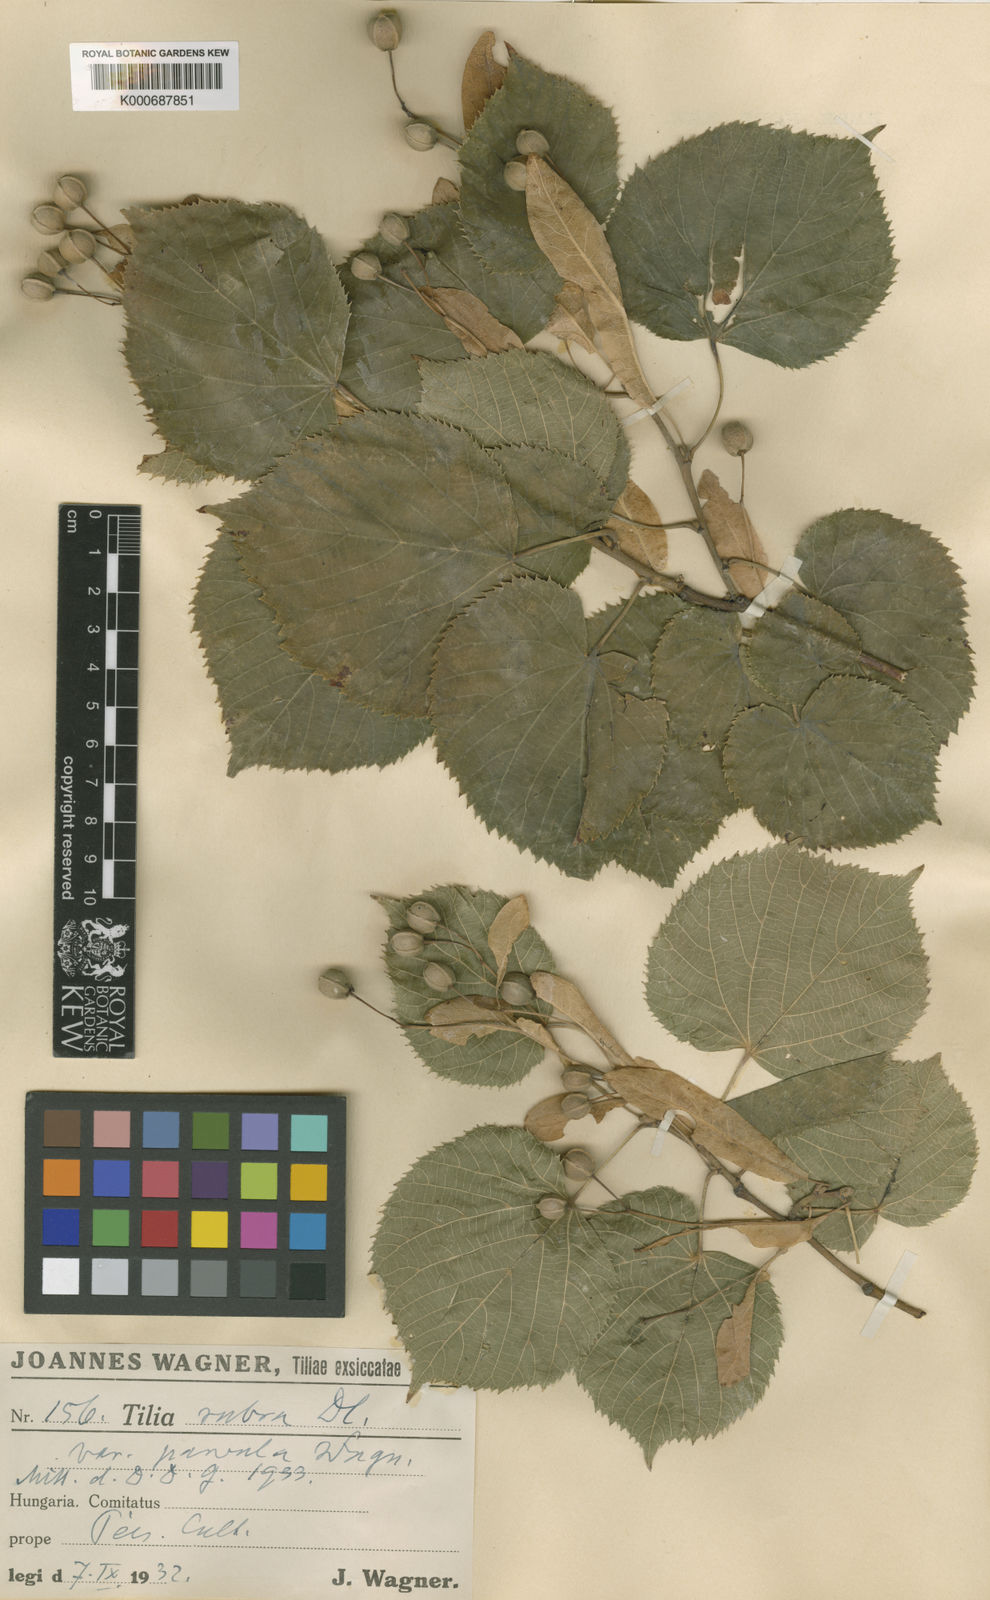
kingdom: Plantae
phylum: Tracheophyta
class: Magnoliopsida
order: Malvales
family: Malvaceae
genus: Tilia
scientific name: Tilia platyphyllos
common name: Large-leaved lime
